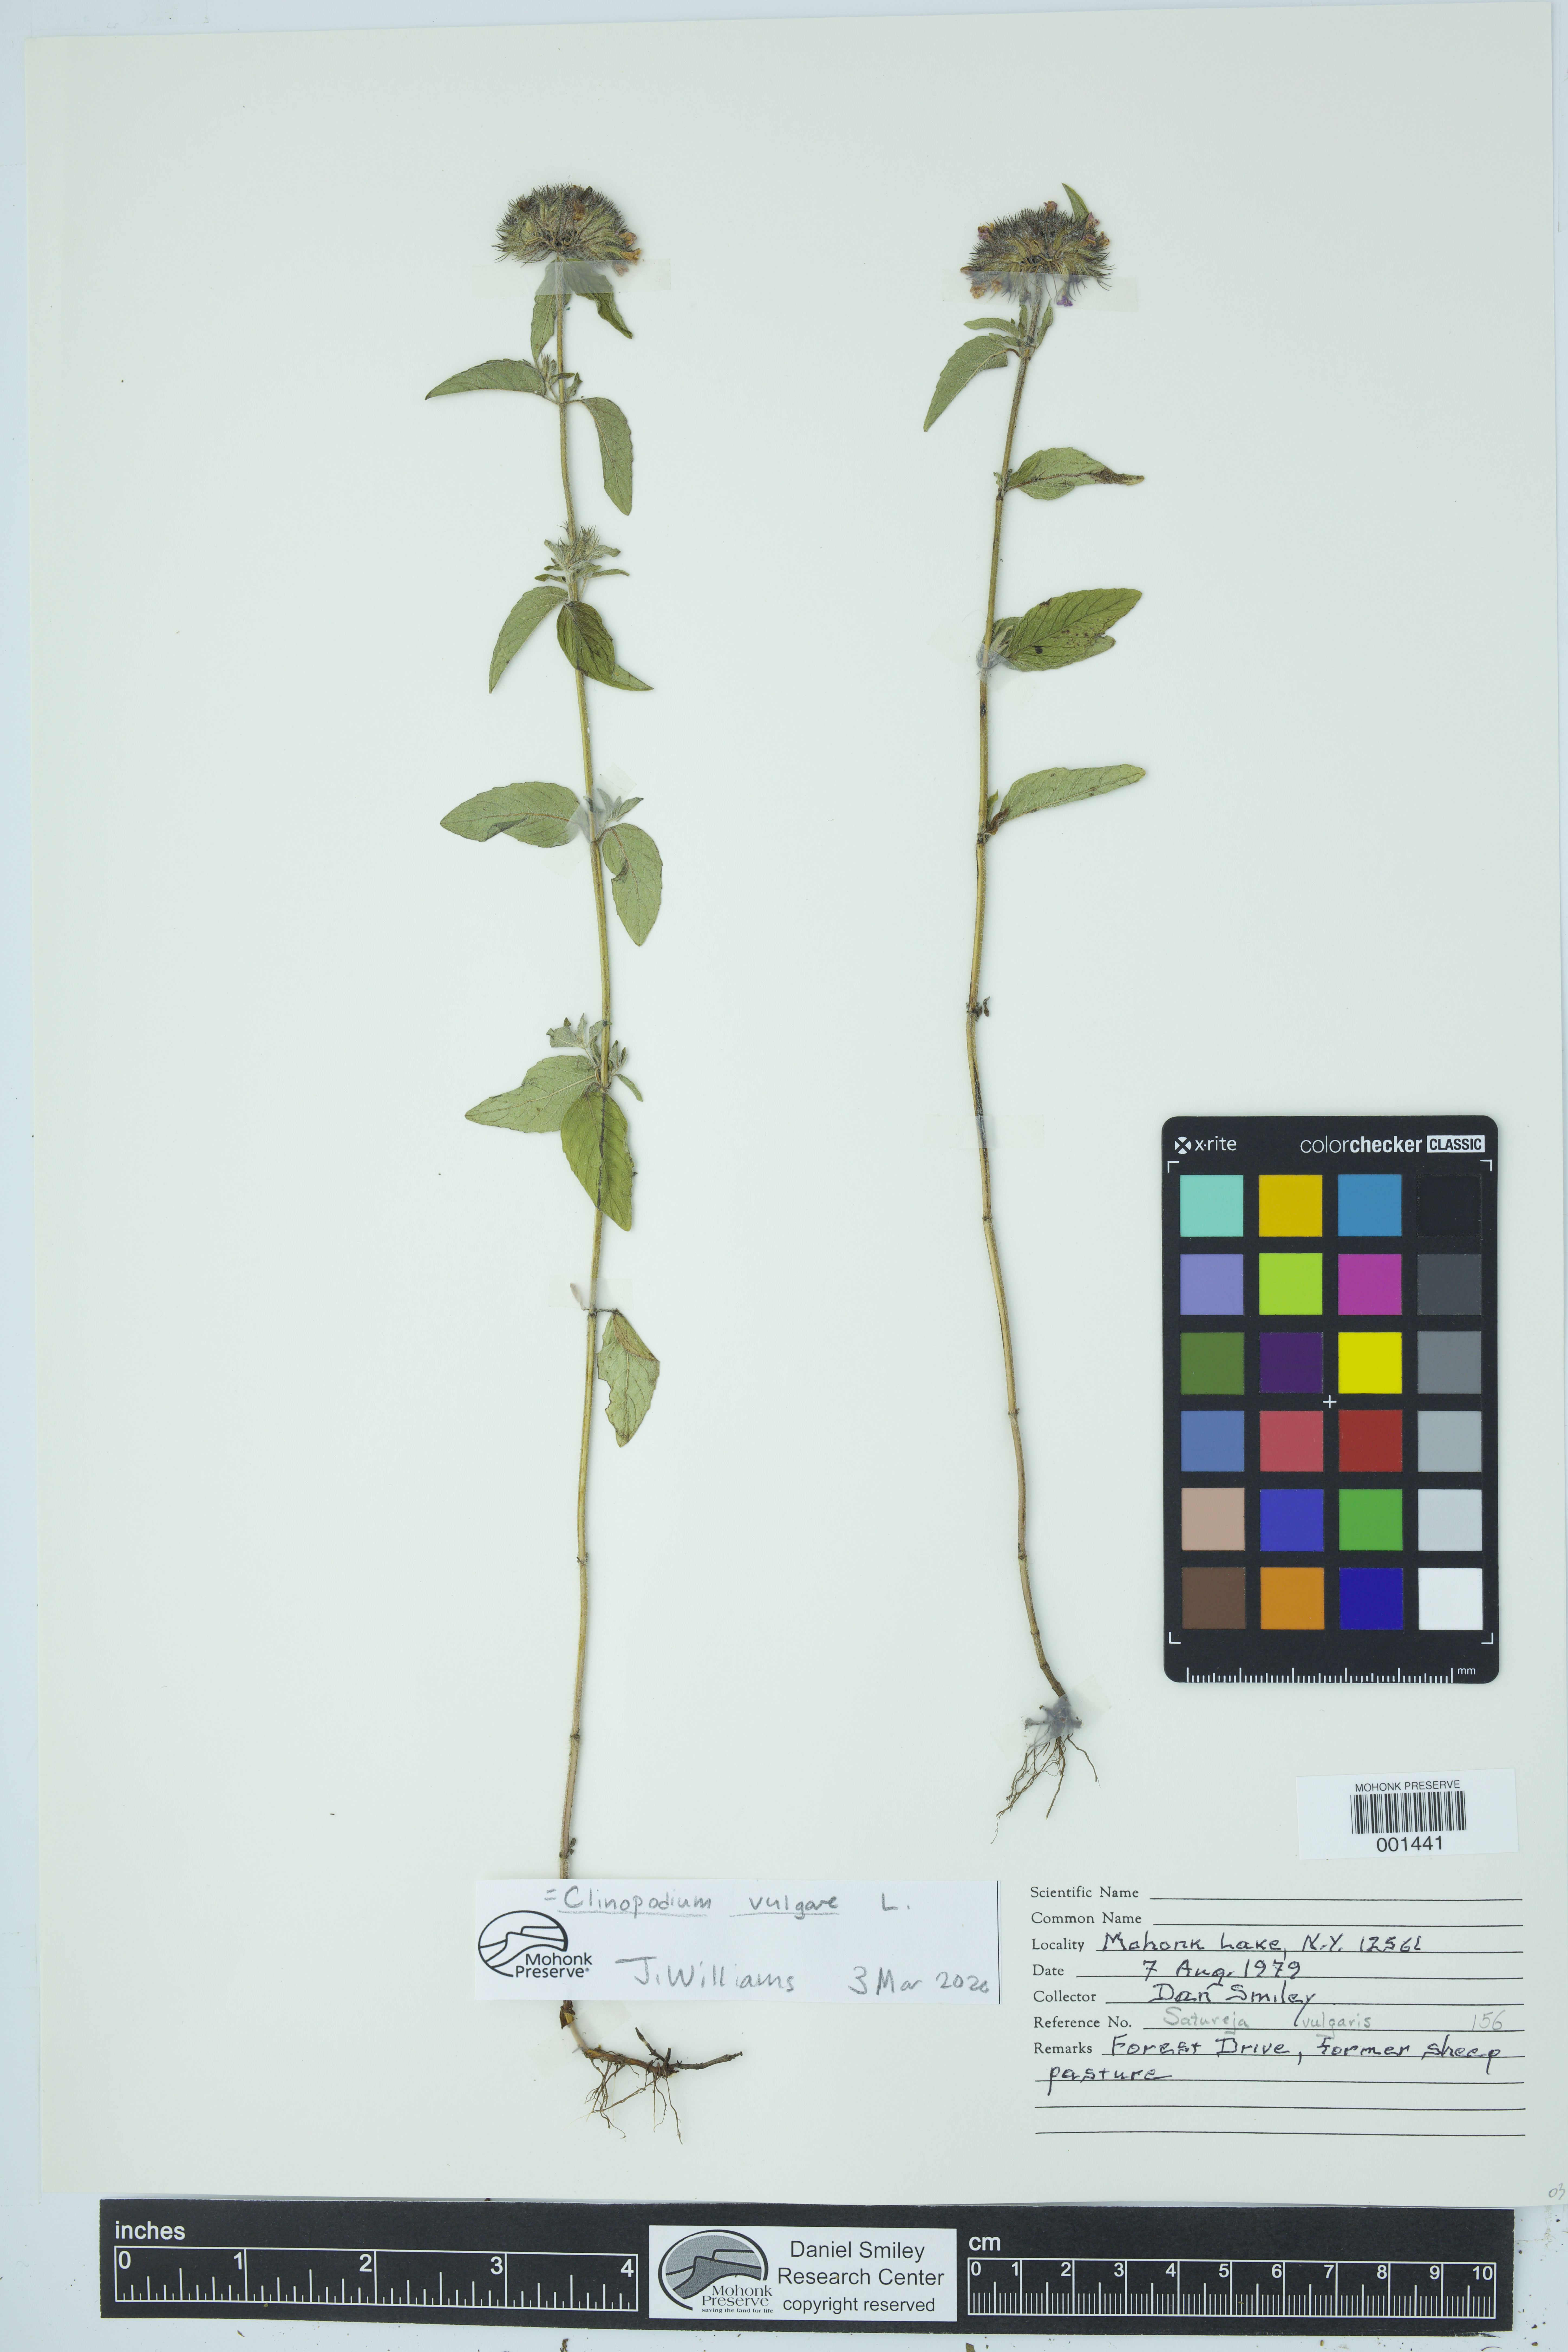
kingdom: Plantae
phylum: Tracheophyta
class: Magnoliopsida
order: Lamiales
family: Lamiaceae
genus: Clinopodium
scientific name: Clinopodium vulgare
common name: Wild basil
